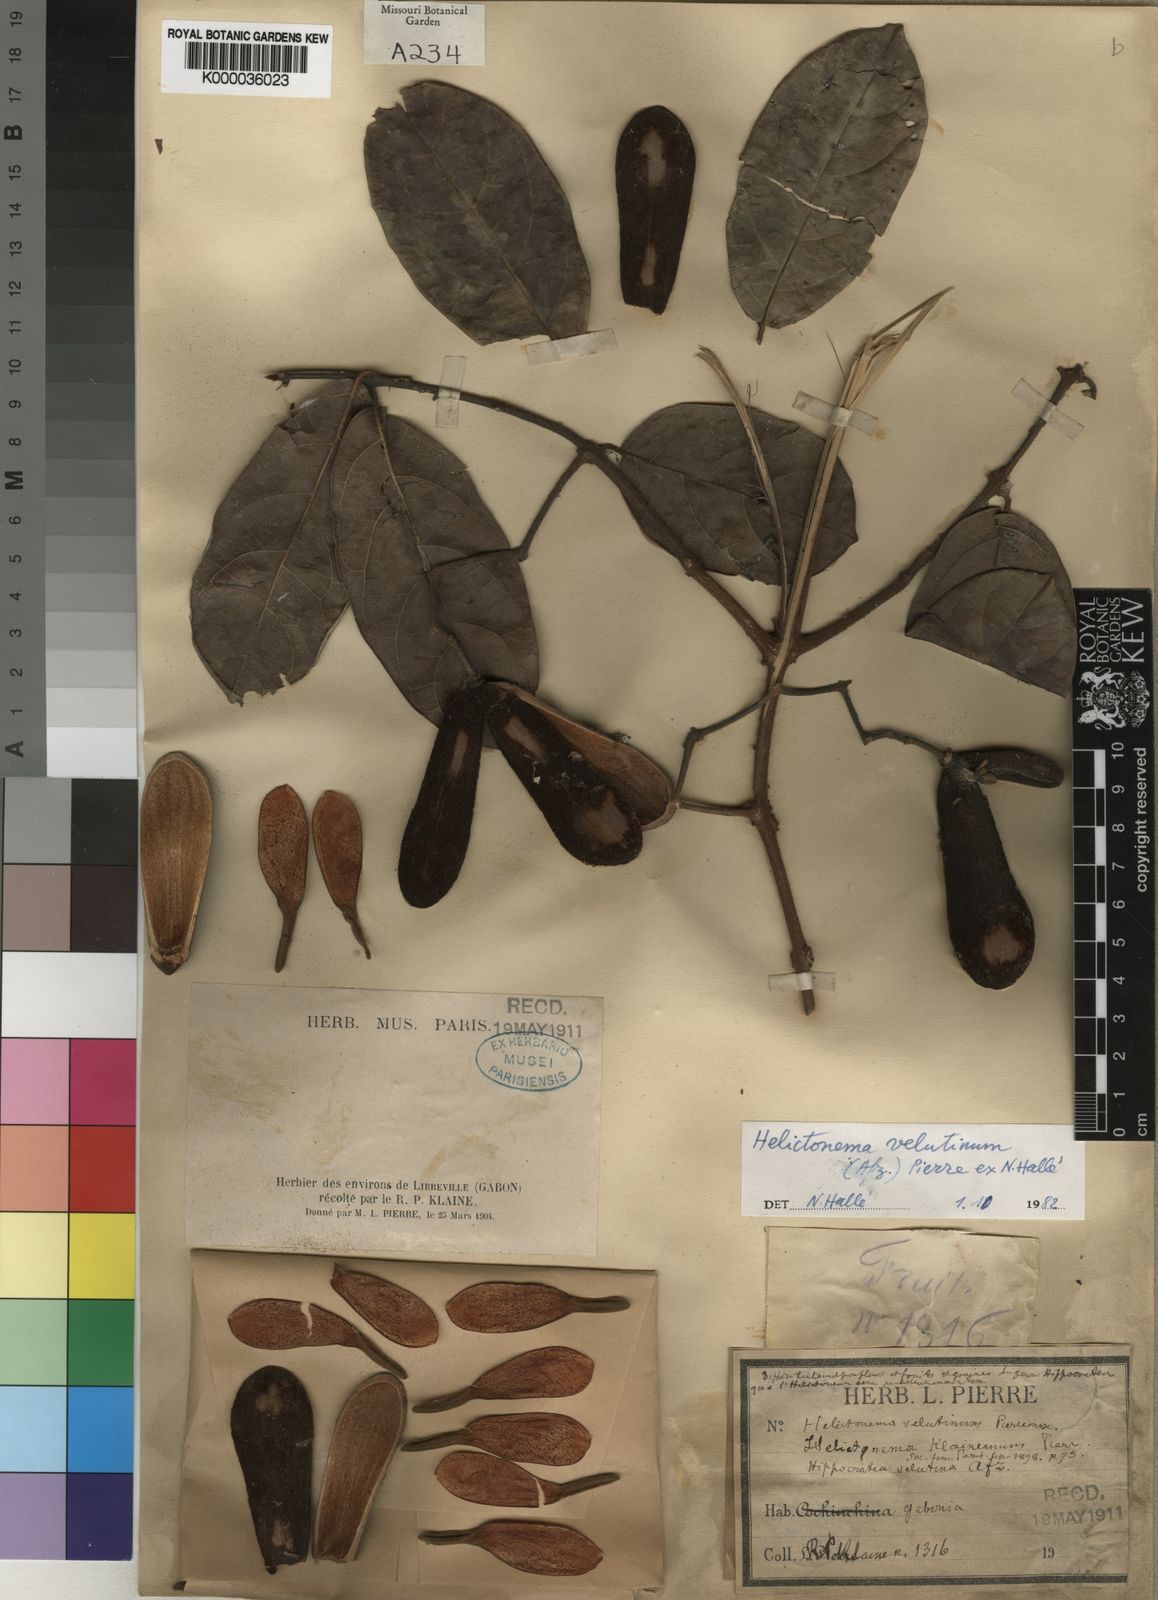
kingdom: Plantae
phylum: Tracheophyta
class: Magnoliopsida
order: Celastrales
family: Celastraceae
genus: Helictonema
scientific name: Helictonema
